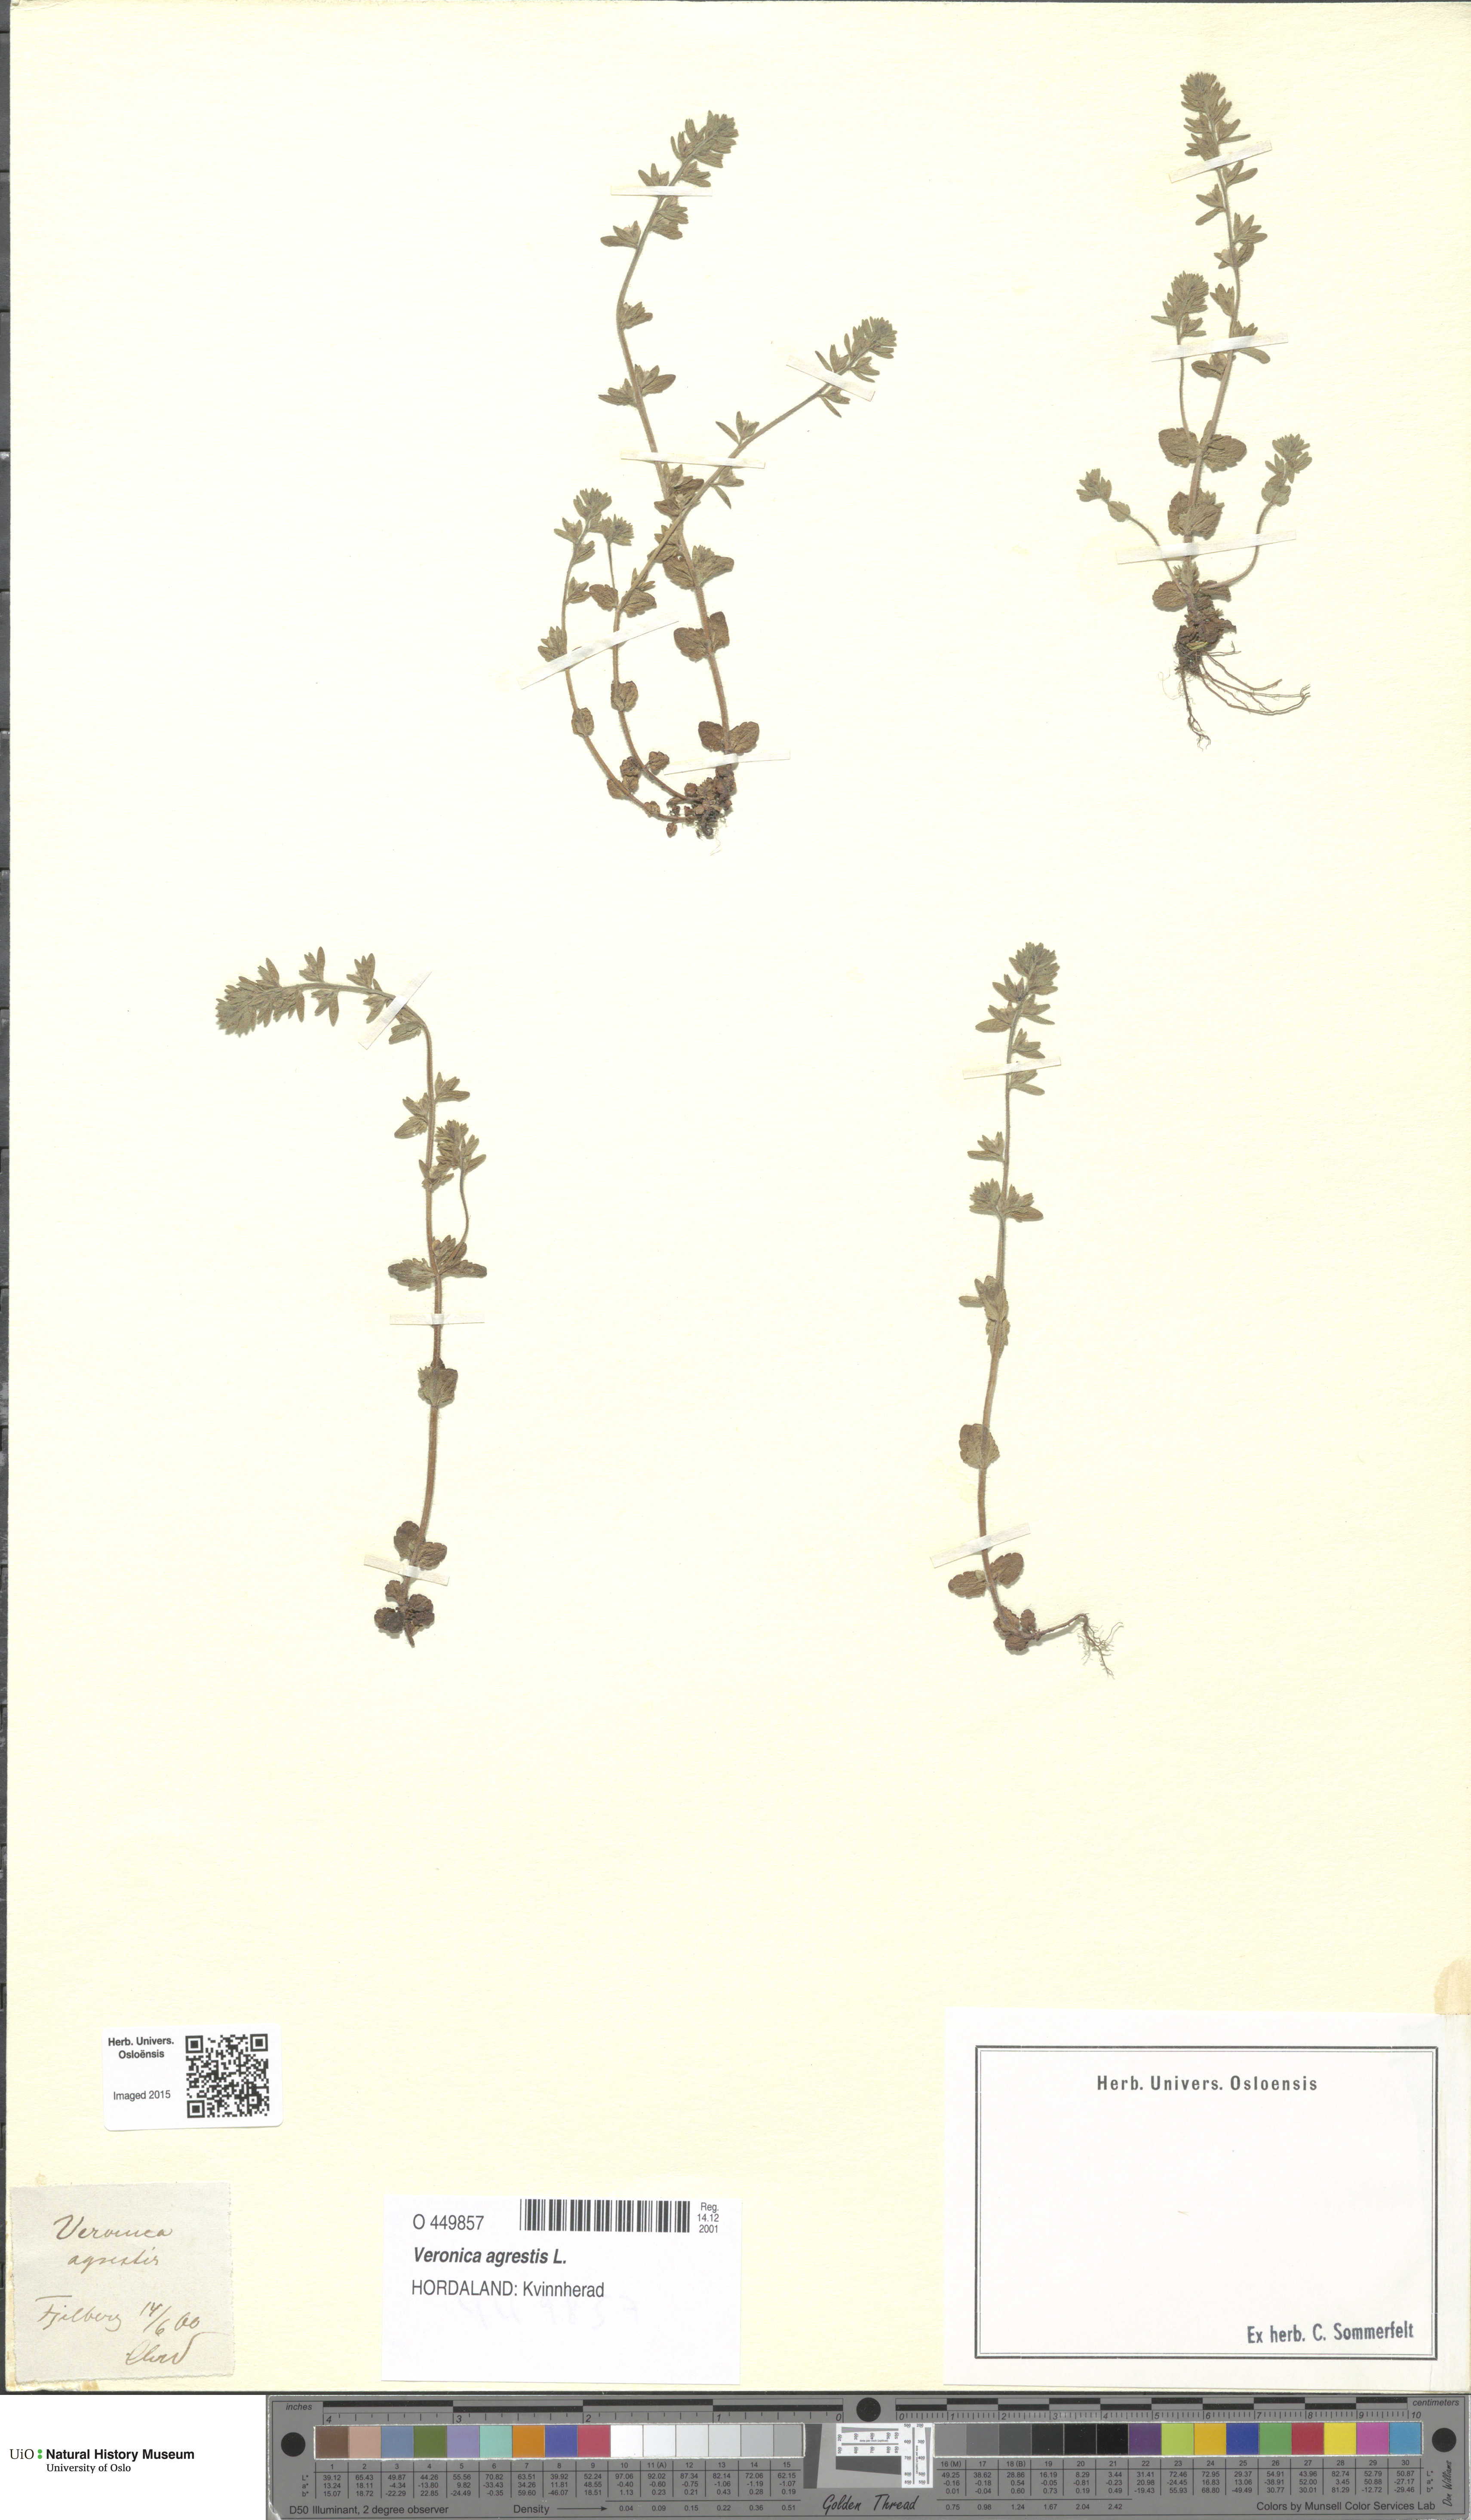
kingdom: Plantae
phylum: Tracheophyta
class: Magnoliopsida
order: Lamiales
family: Plantaginaceae
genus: Veronica
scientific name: Veronica agrestis
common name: Green field-speedwell
